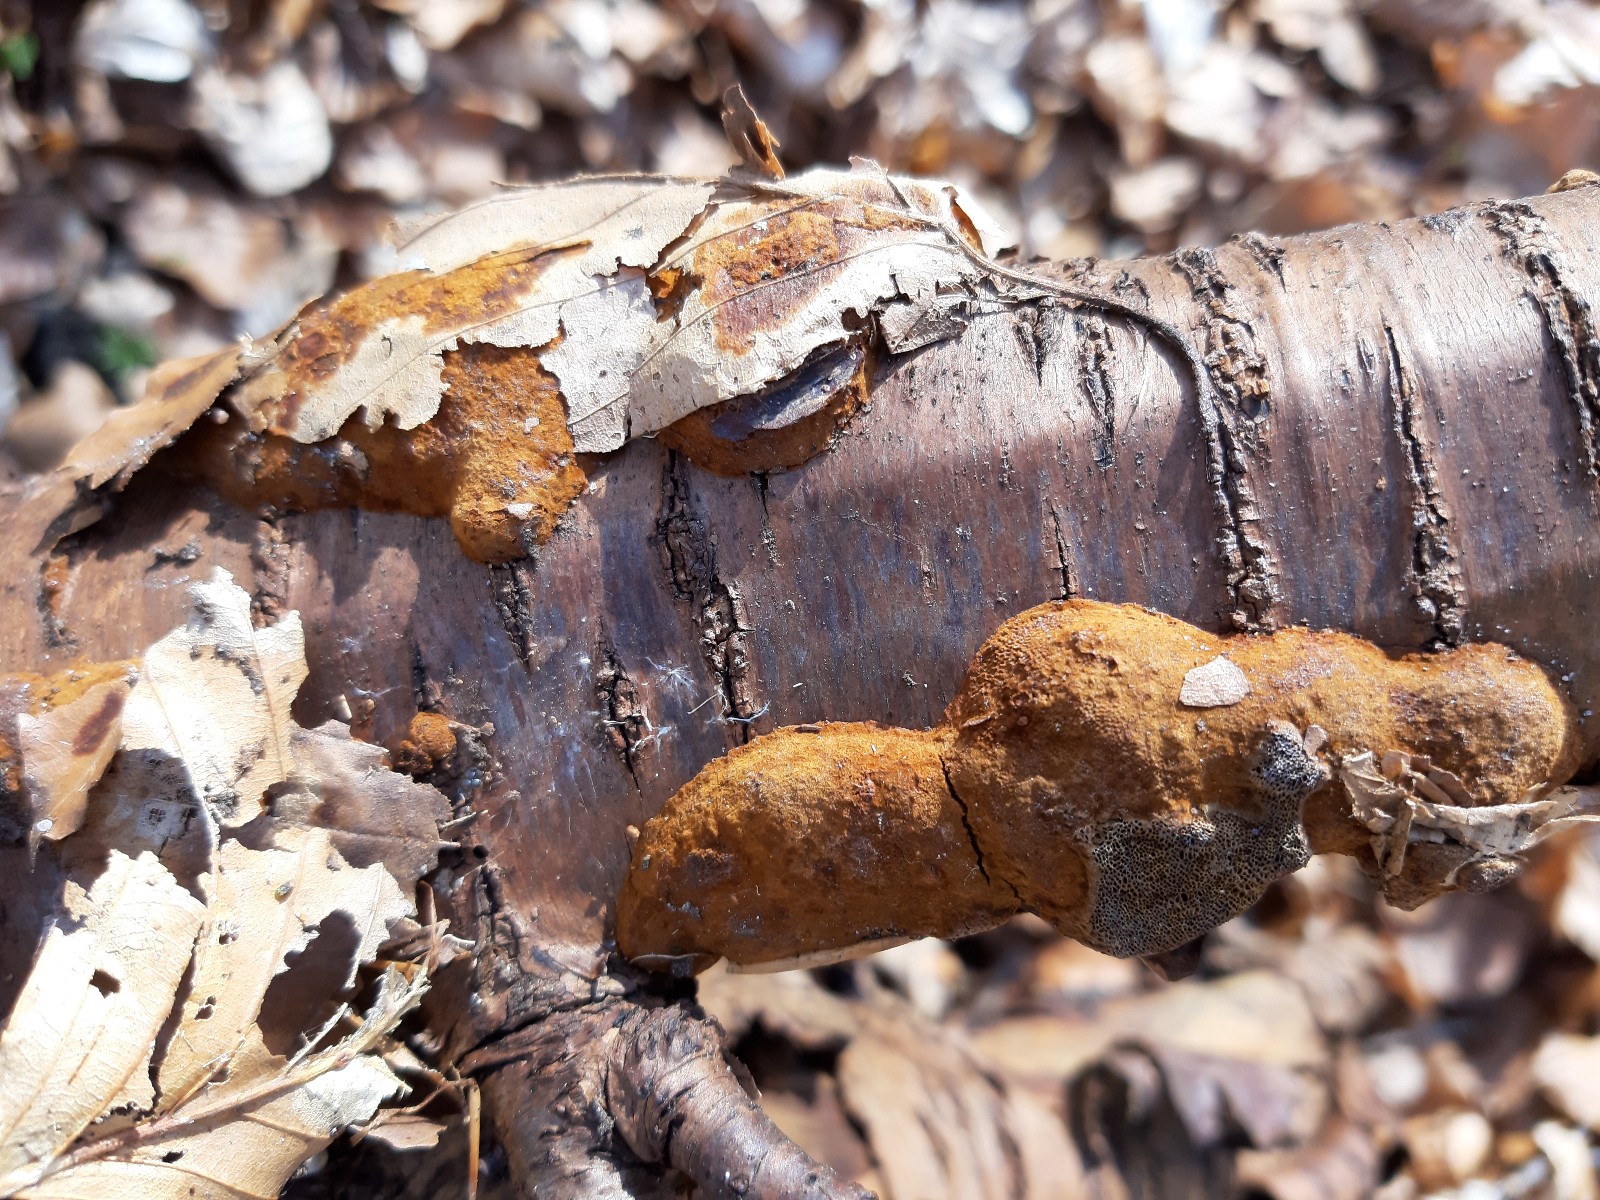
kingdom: Fungi
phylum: Basidiomycota
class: Agaricomycetes
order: Hymenochaetales
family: Hymenochaetaceae
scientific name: Hymenochaetaceae
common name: børstesvampfamilien
